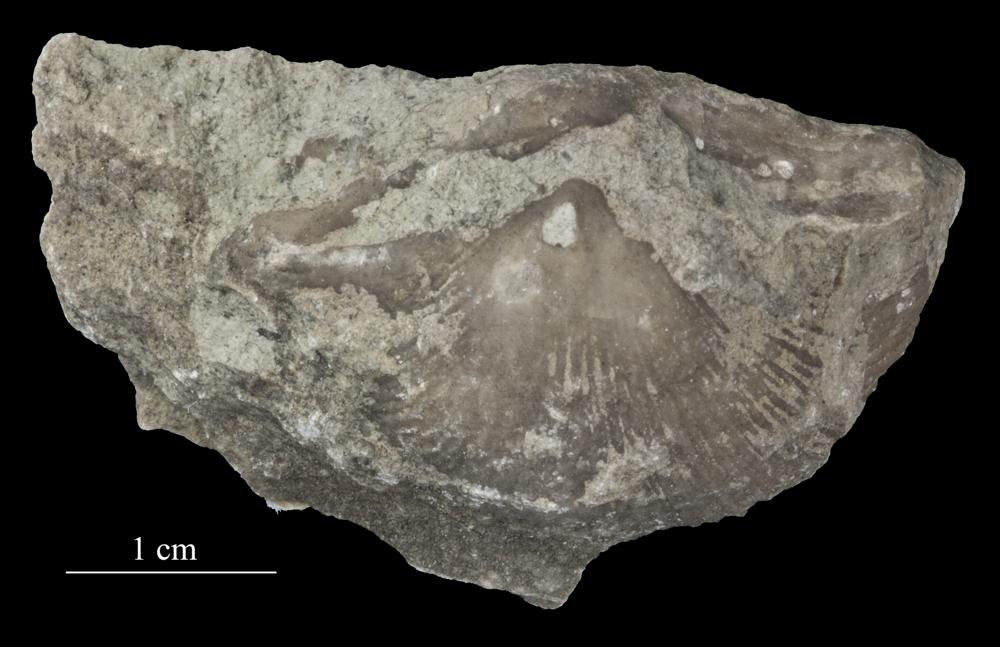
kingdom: Animalia
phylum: Echinodermata
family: Echinosphaeritidae
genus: Echinosphaerites
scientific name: Echinosphaerites Echinus aurantium
